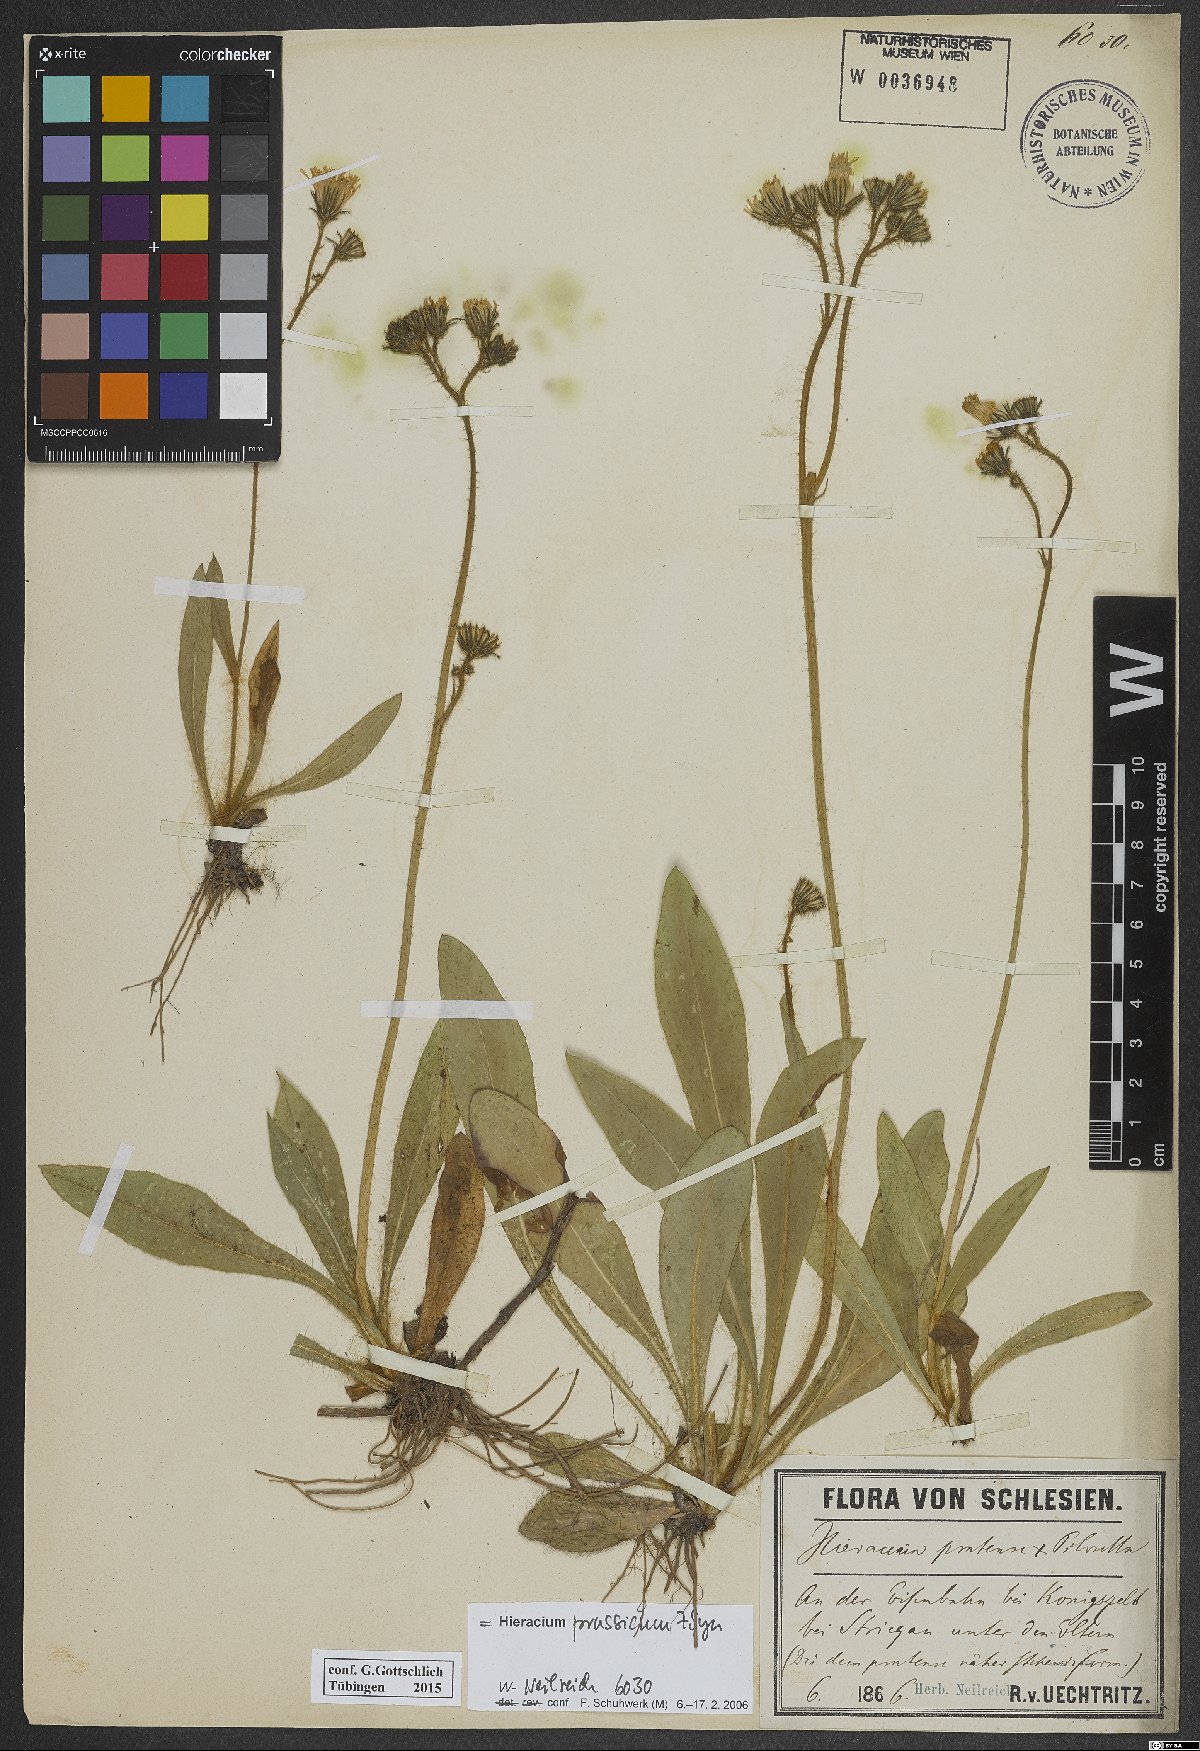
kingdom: Plantae
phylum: Tracheophyta
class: Magnoliopsida
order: Asterales
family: Asteraceae
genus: Pilosella
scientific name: Pilosella prussica
